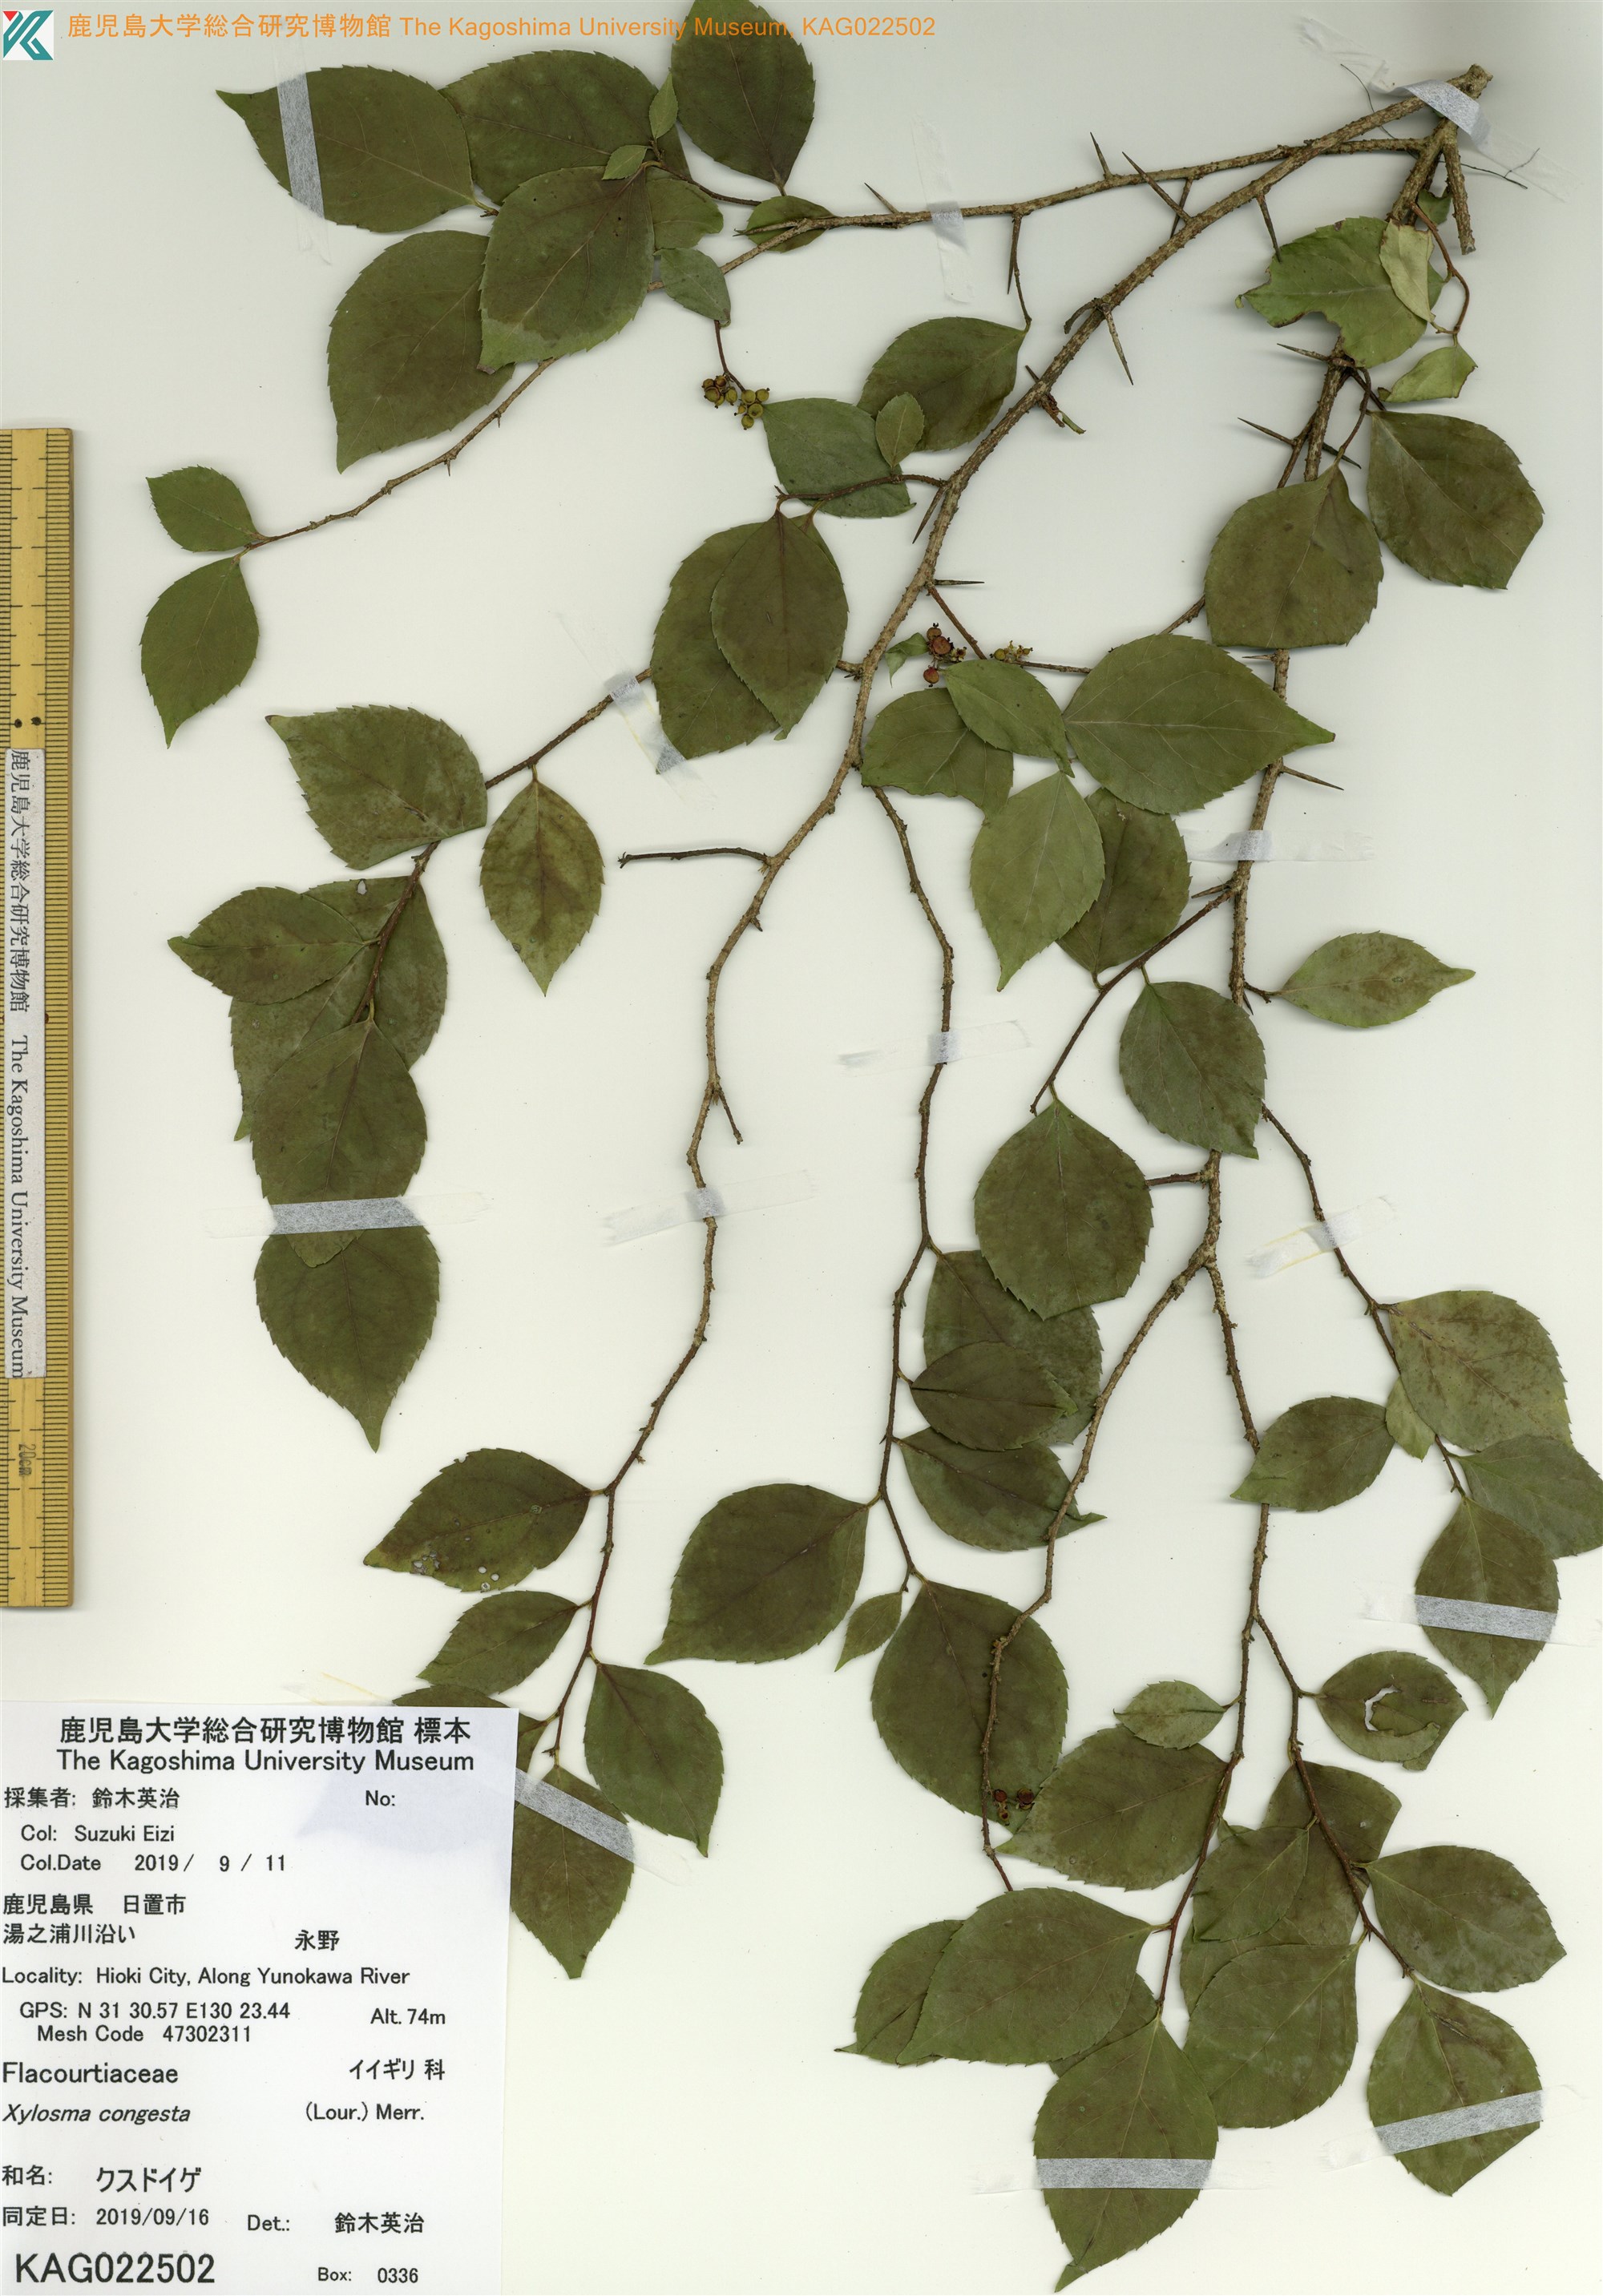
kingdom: Plantae
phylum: Tracheophyta
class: Magnoliopsida
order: Malpighiales
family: Salicaceae
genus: Xylosma
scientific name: Xylosma racemosum
